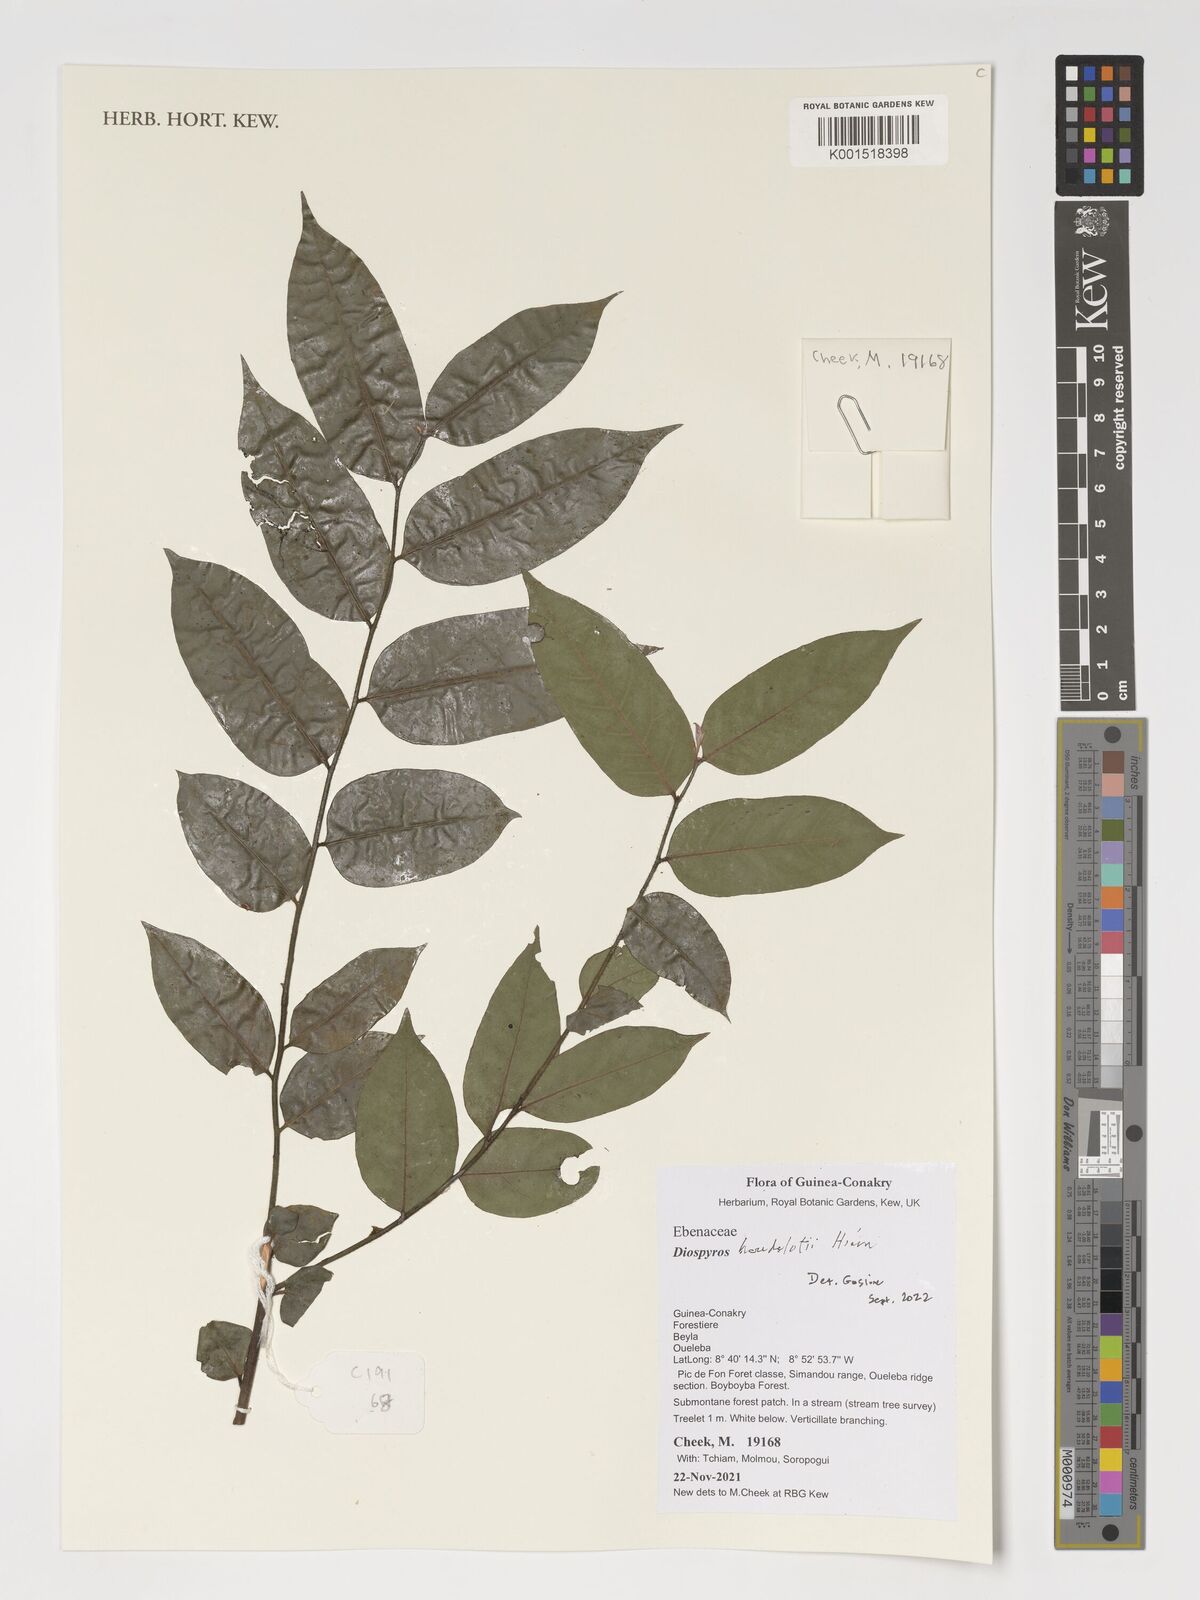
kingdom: Plantae
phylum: Tracheophyta
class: Magnoliopsida
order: Ericales
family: Ebenaceae
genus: Diospyros
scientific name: Diospyros heudelotii
